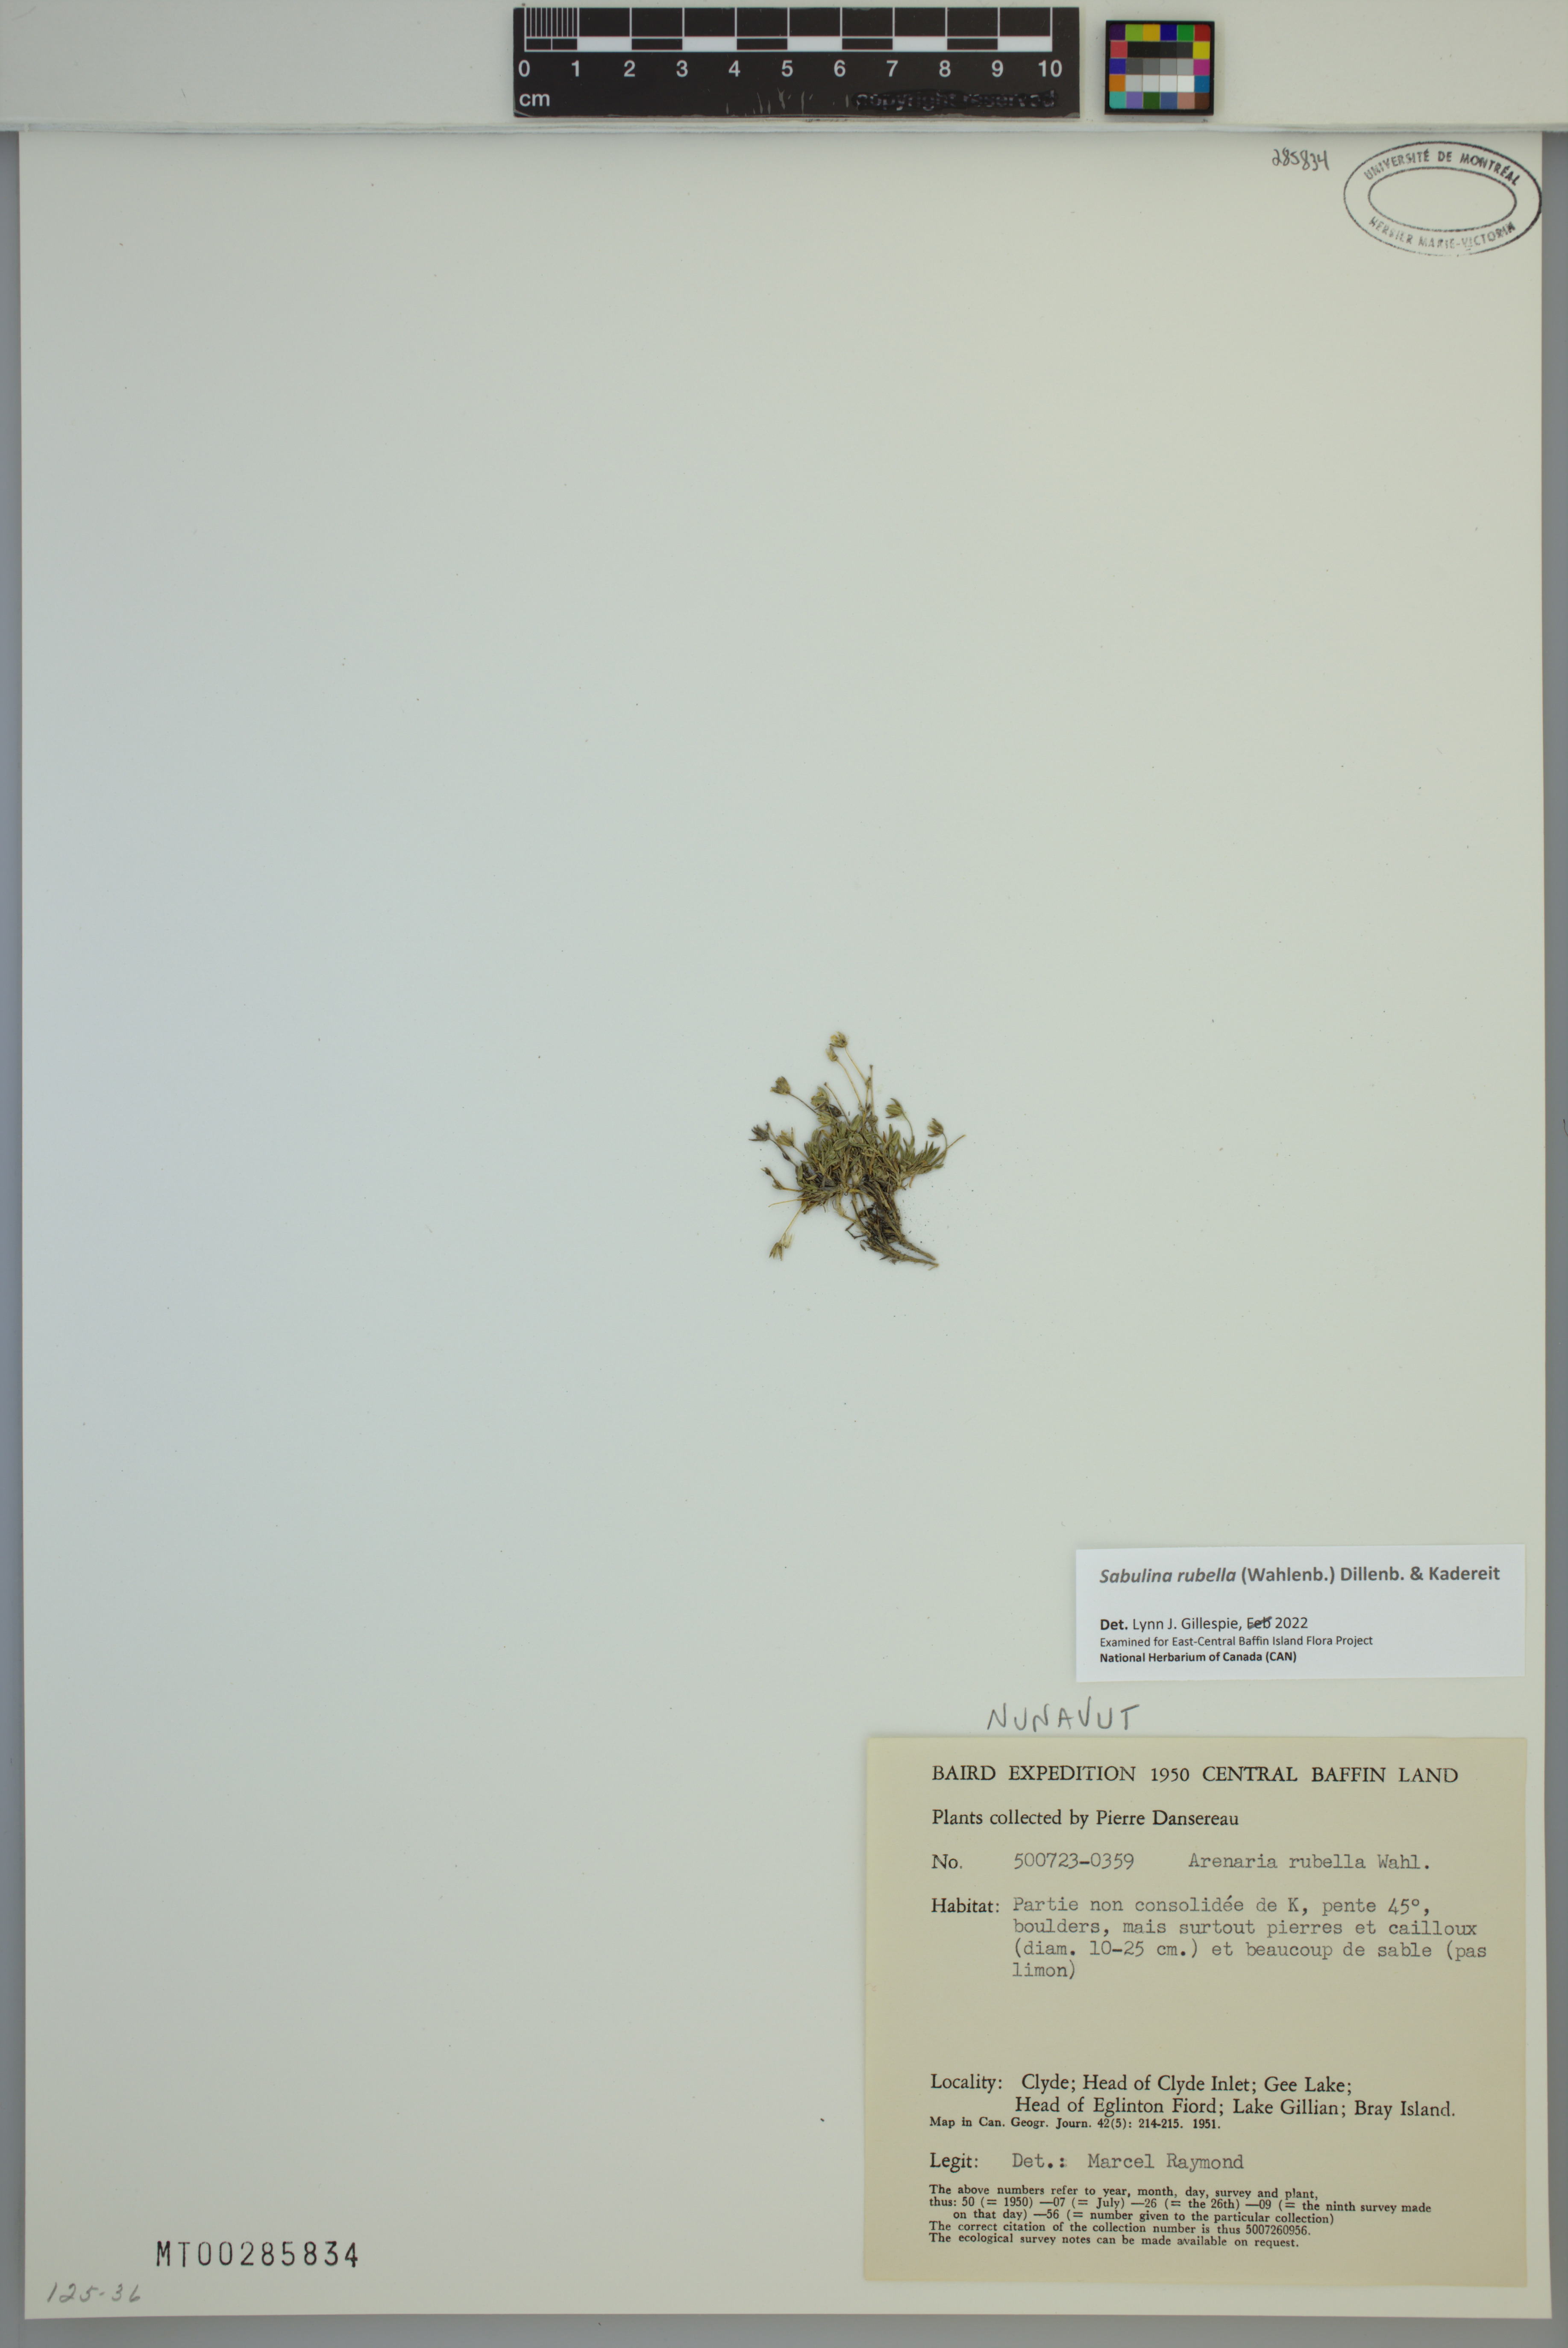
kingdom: Plantae
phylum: Tracheophyta
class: Magnoliopsida
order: Caryophyllales
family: Caryophyllaceae
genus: Sabulina
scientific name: Sabulina rubella
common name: Beautiful sandwort
